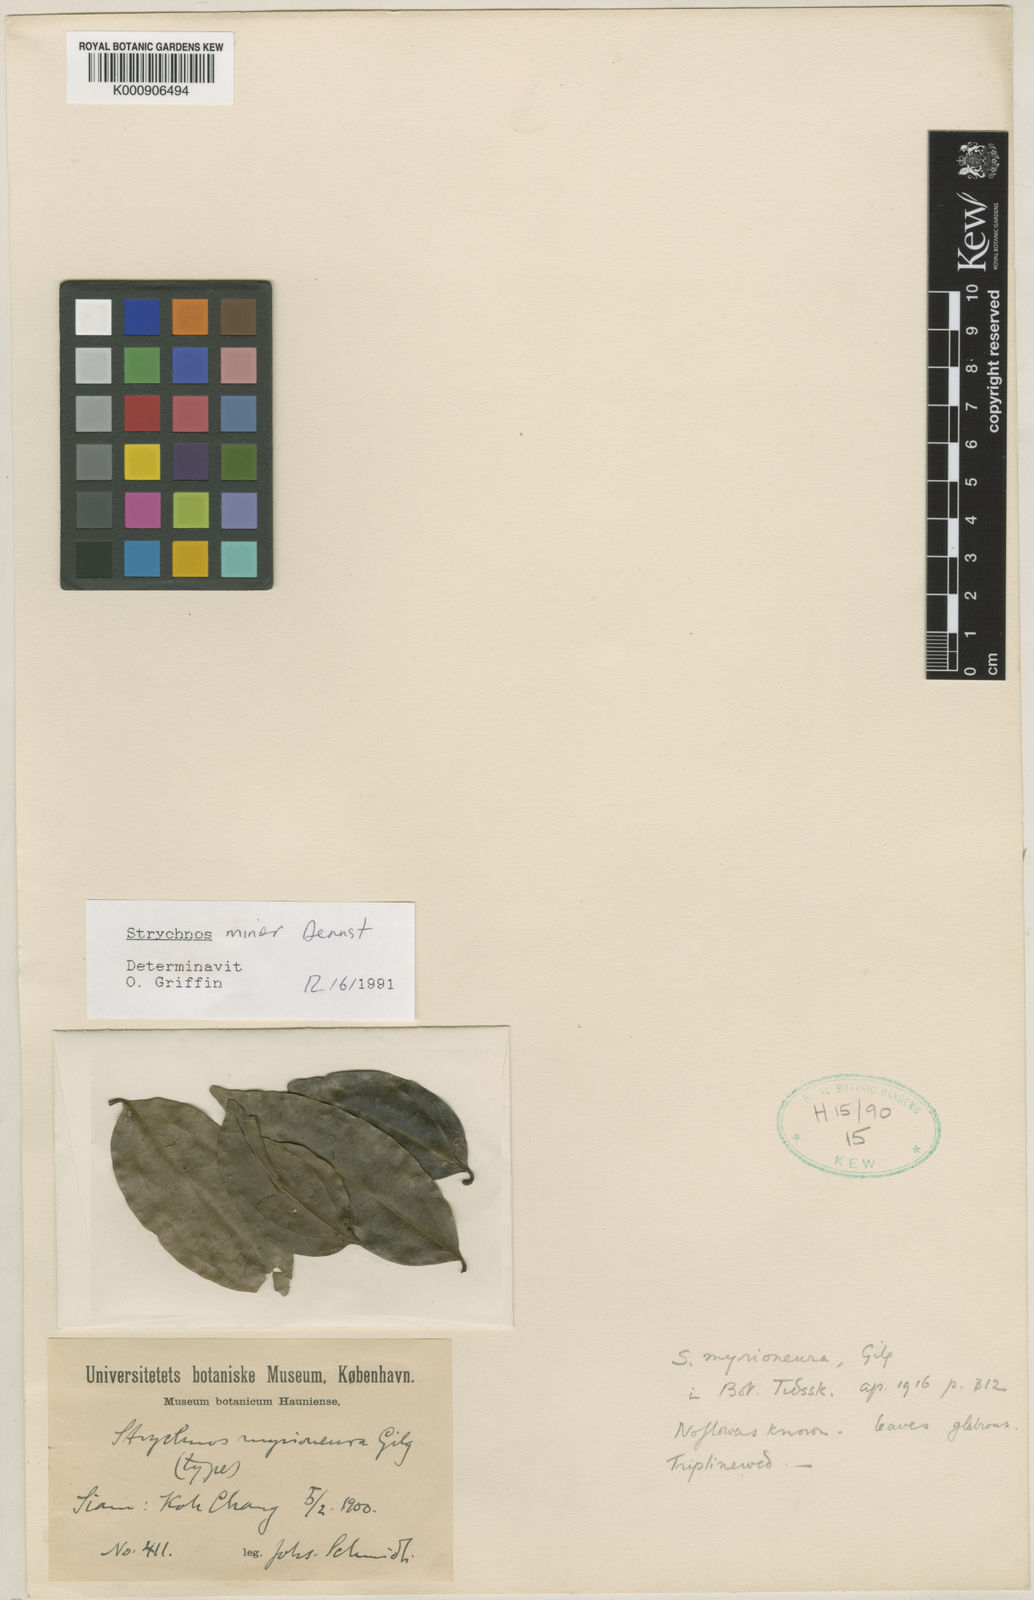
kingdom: Plantae
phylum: Tracheophyta
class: Magnoliopsida
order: Gentianales
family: Loganiaceae
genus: Strychnos
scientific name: Strychnos minor
